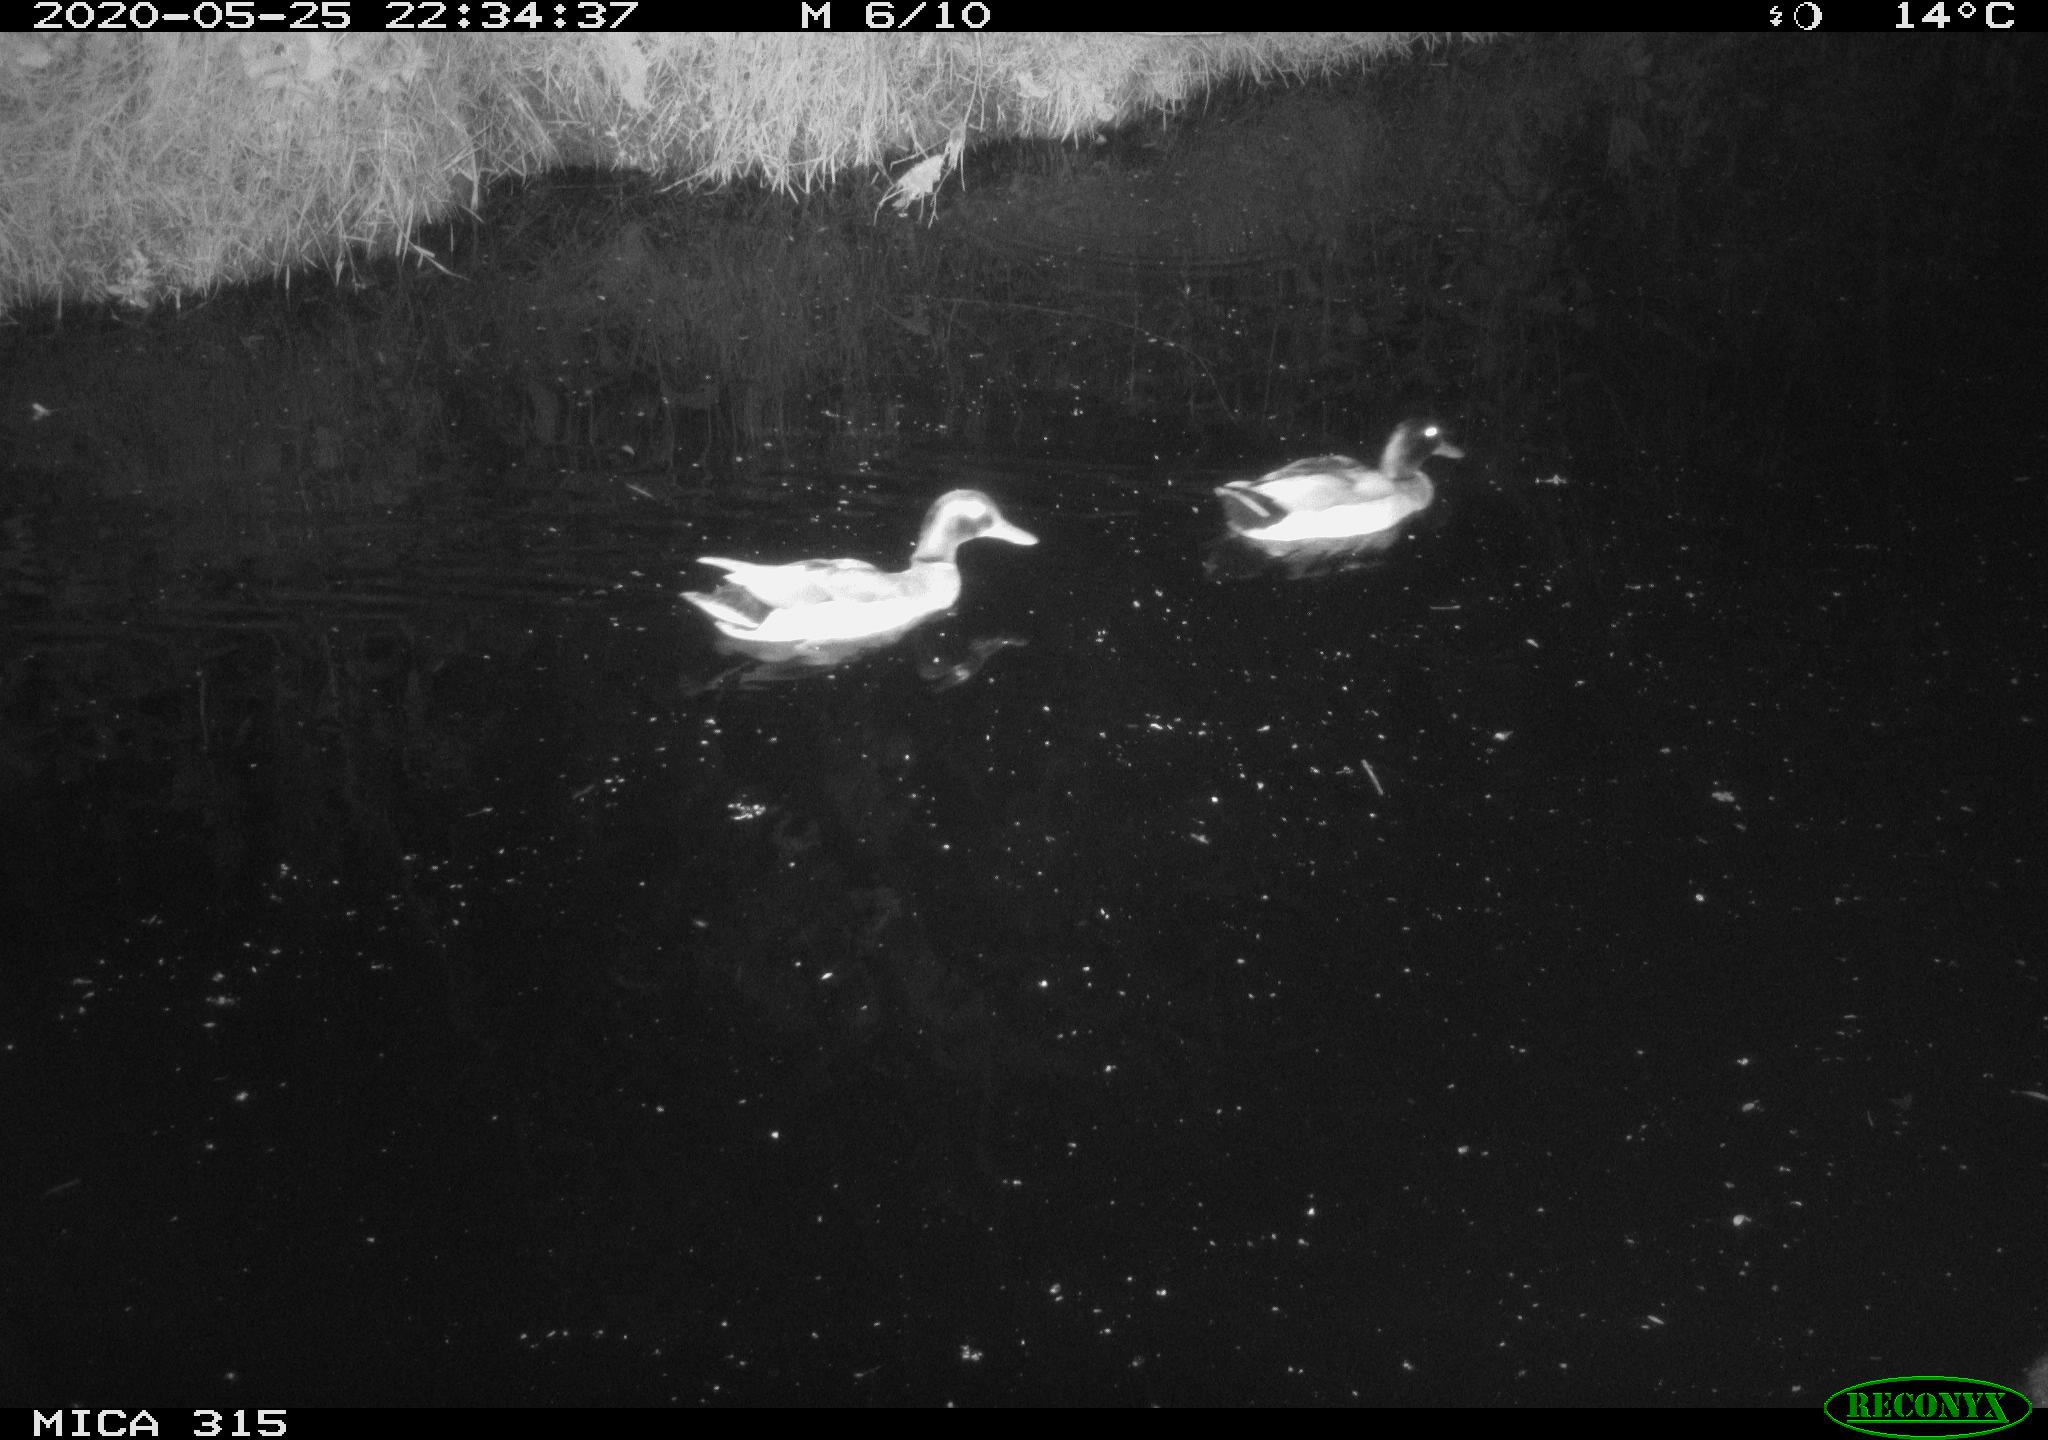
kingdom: Animalia
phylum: Chordata
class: Aves
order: Anseriformes
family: Anatidae
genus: Anas
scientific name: Anas platyrhynchos
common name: Mallard
